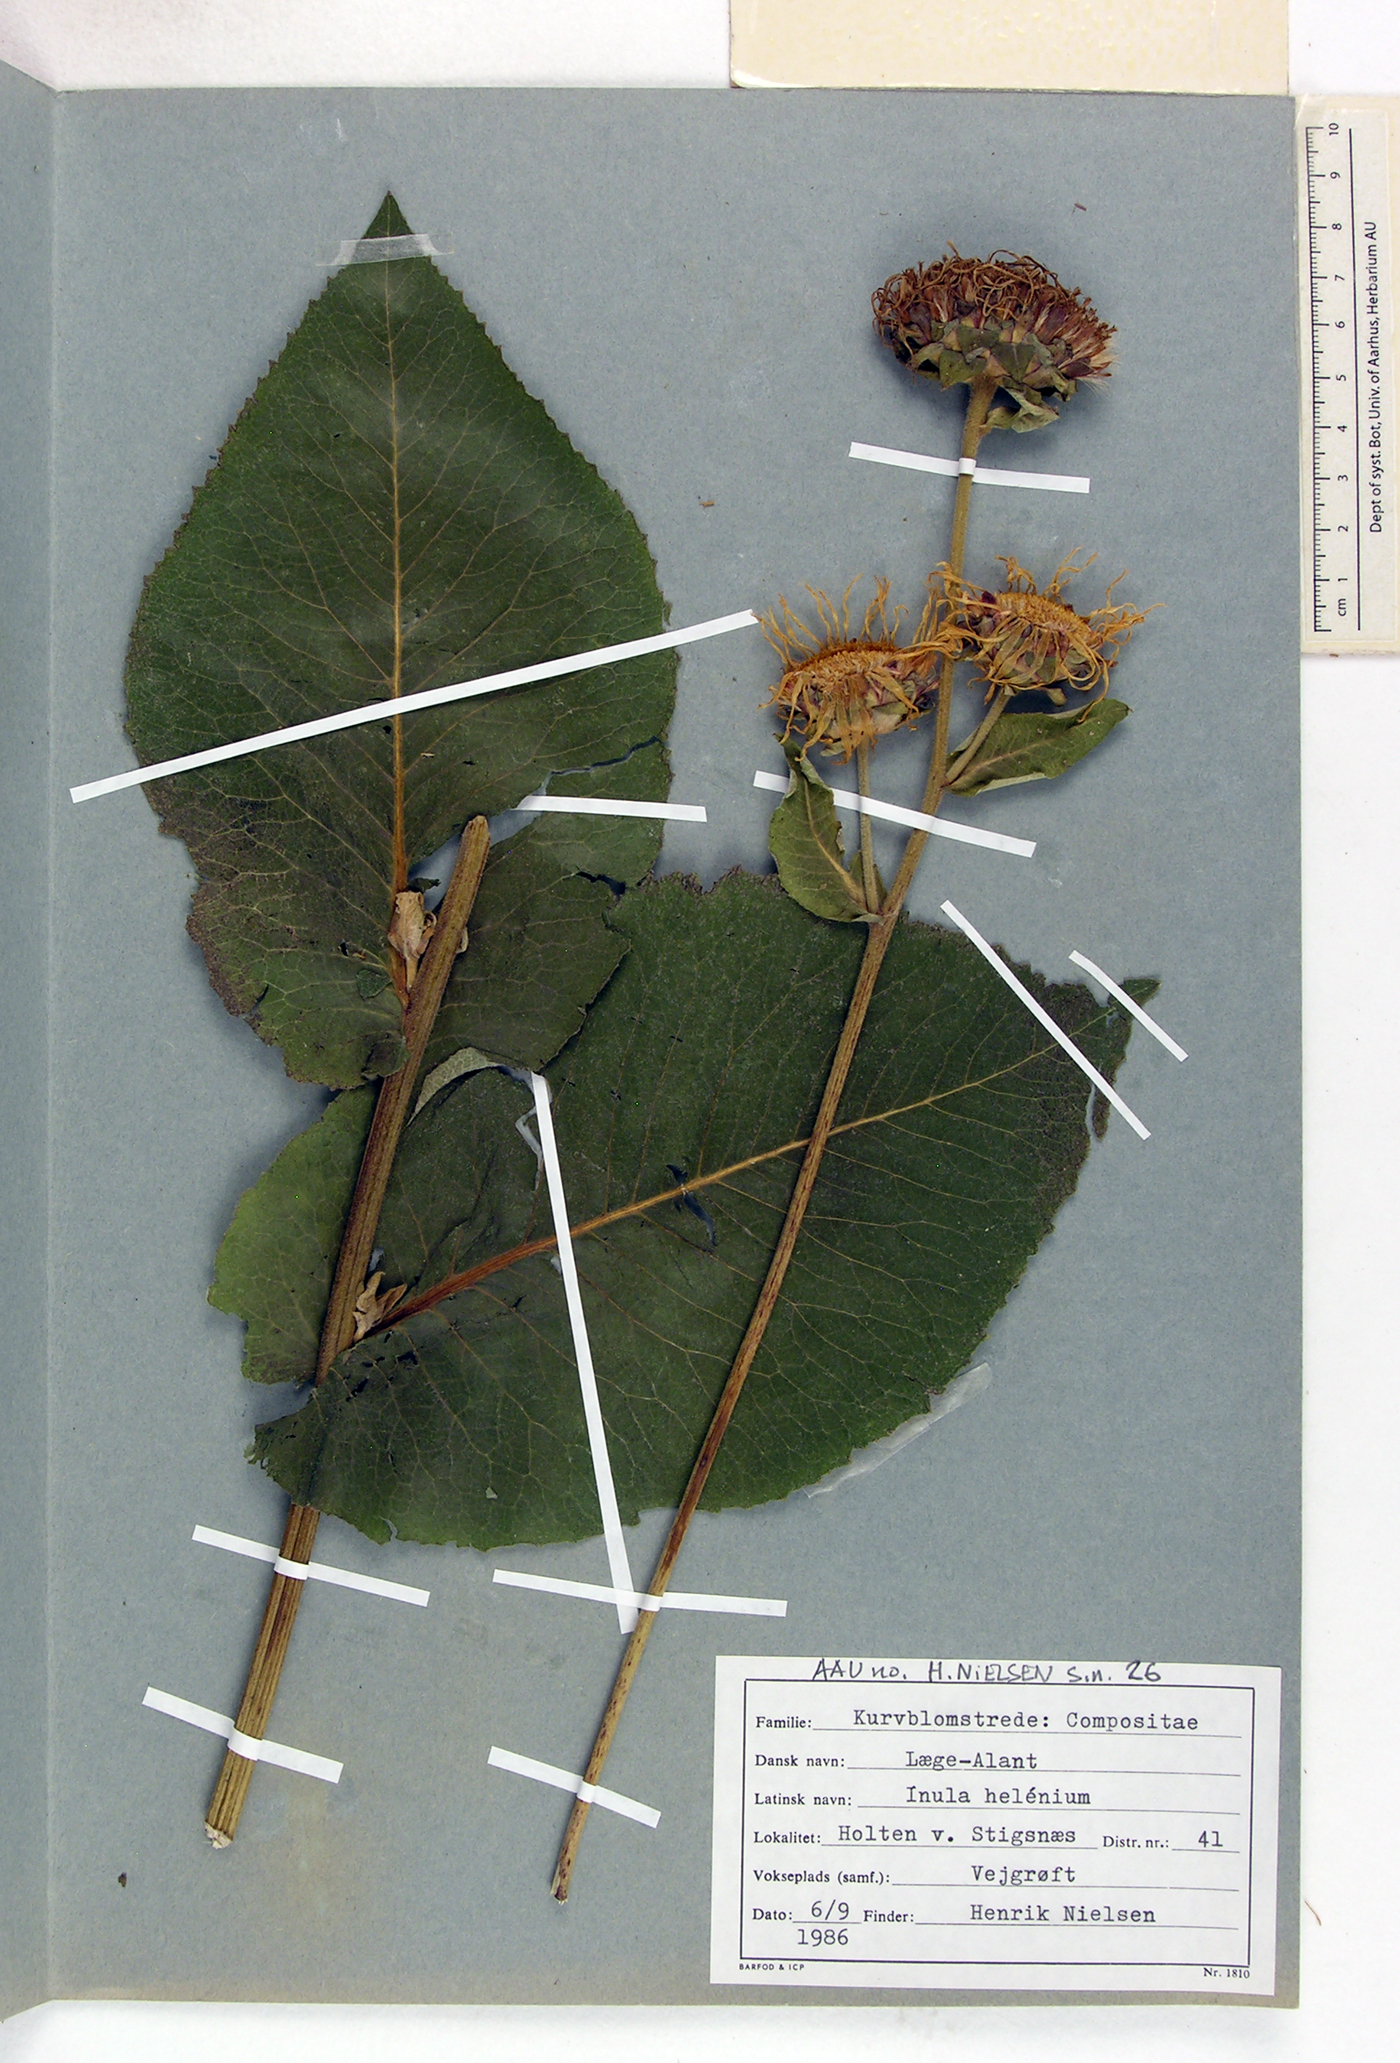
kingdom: Plantae
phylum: Tracheophyta
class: Magnoliopsida
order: Asterales
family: Asteraceae
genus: Inula
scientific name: Inula helenium
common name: Elecampane
